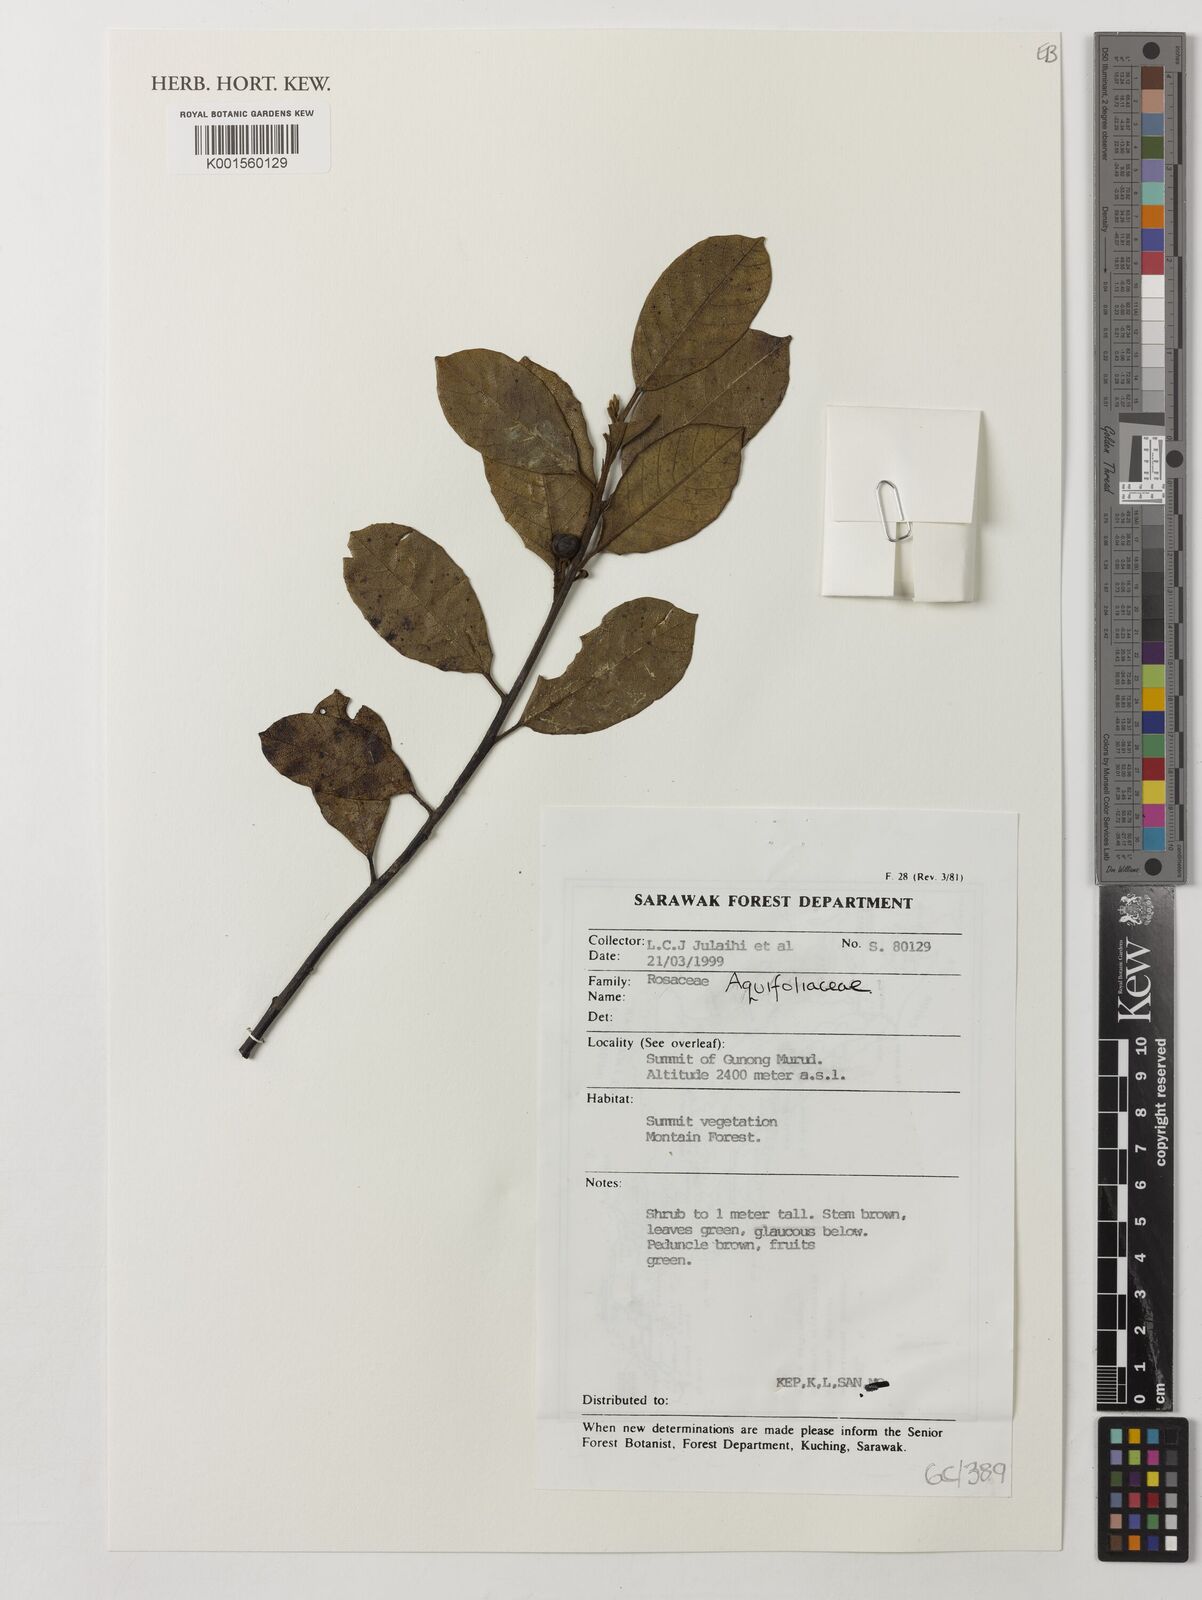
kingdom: Plantae
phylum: Tracheophyta
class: Magnoliopsida
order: Aquifoliales
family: Aquifoliaceae
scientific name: Aquifoliaceae
